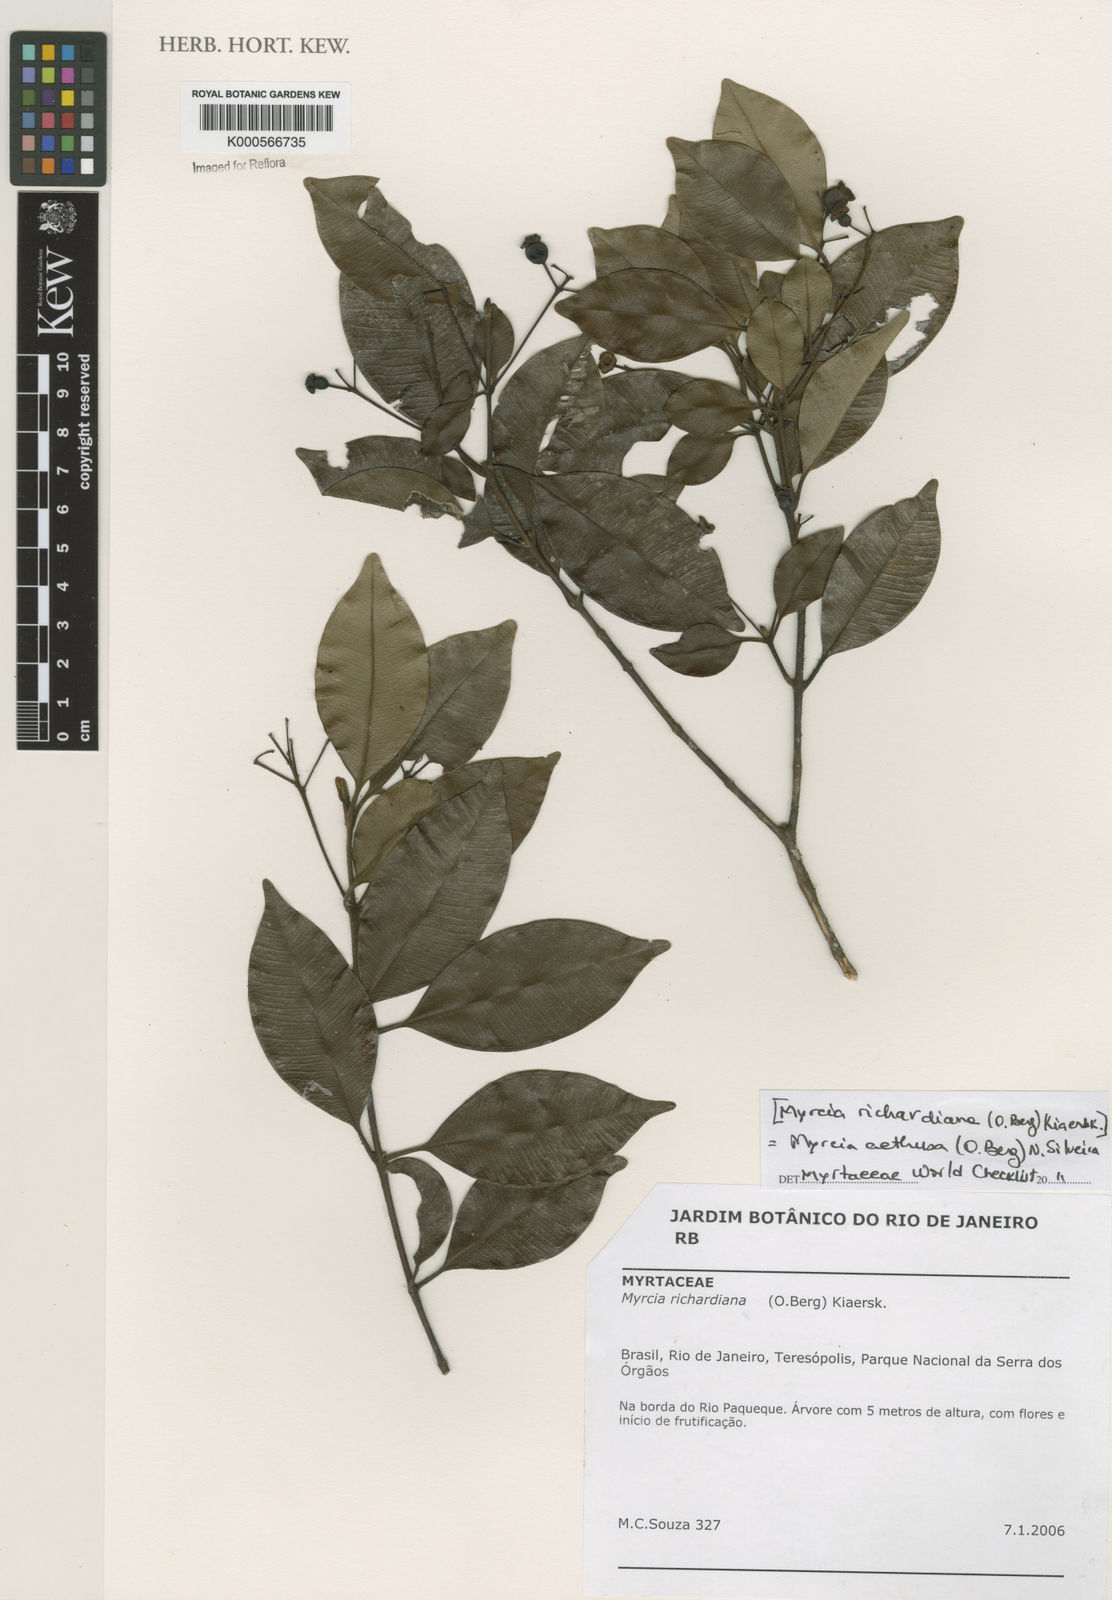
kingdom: Plantae
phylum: Tracheophyta
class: Magnoliopsida
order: Myrtales
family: Myrtaceae
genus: Myrcia
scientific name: Myrcia aethusa
